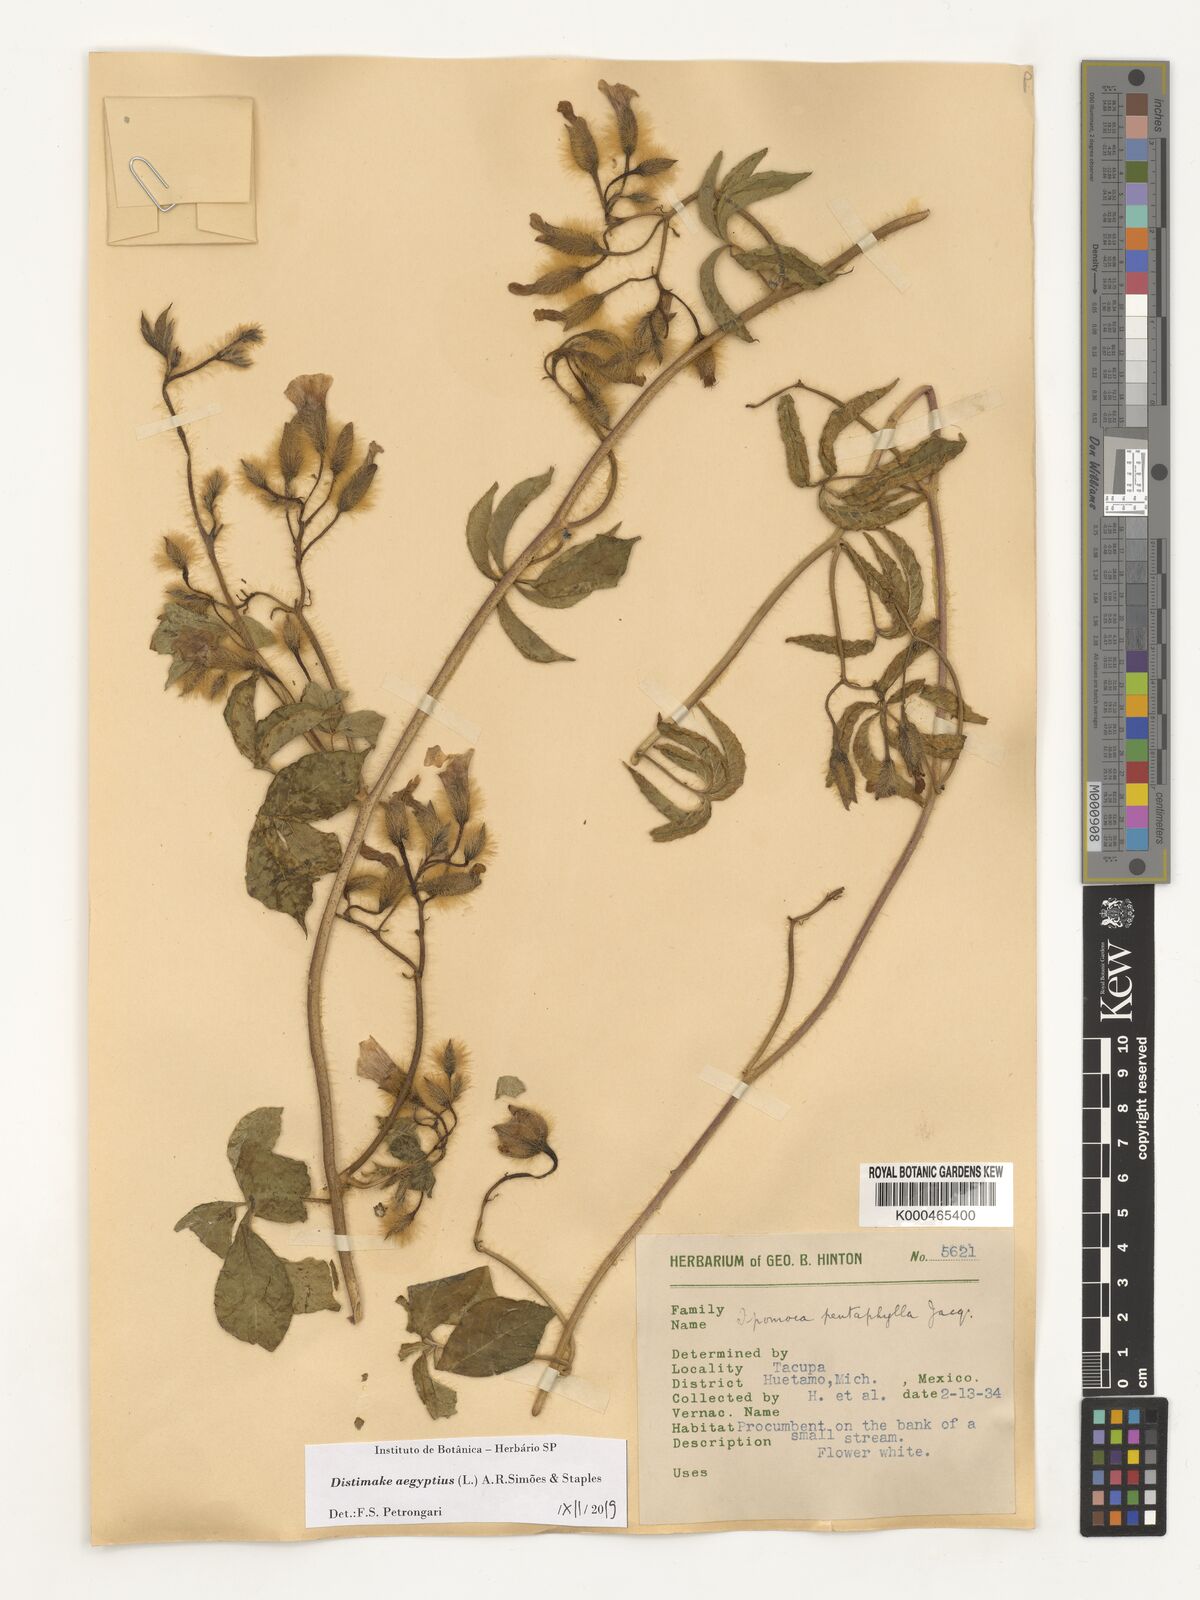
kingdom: Plantae
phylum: Tracheophyta
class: Magnoliopsida
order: Solanales
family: Convolvulaceae
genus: Distimake
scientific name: Distimake aegyptius
